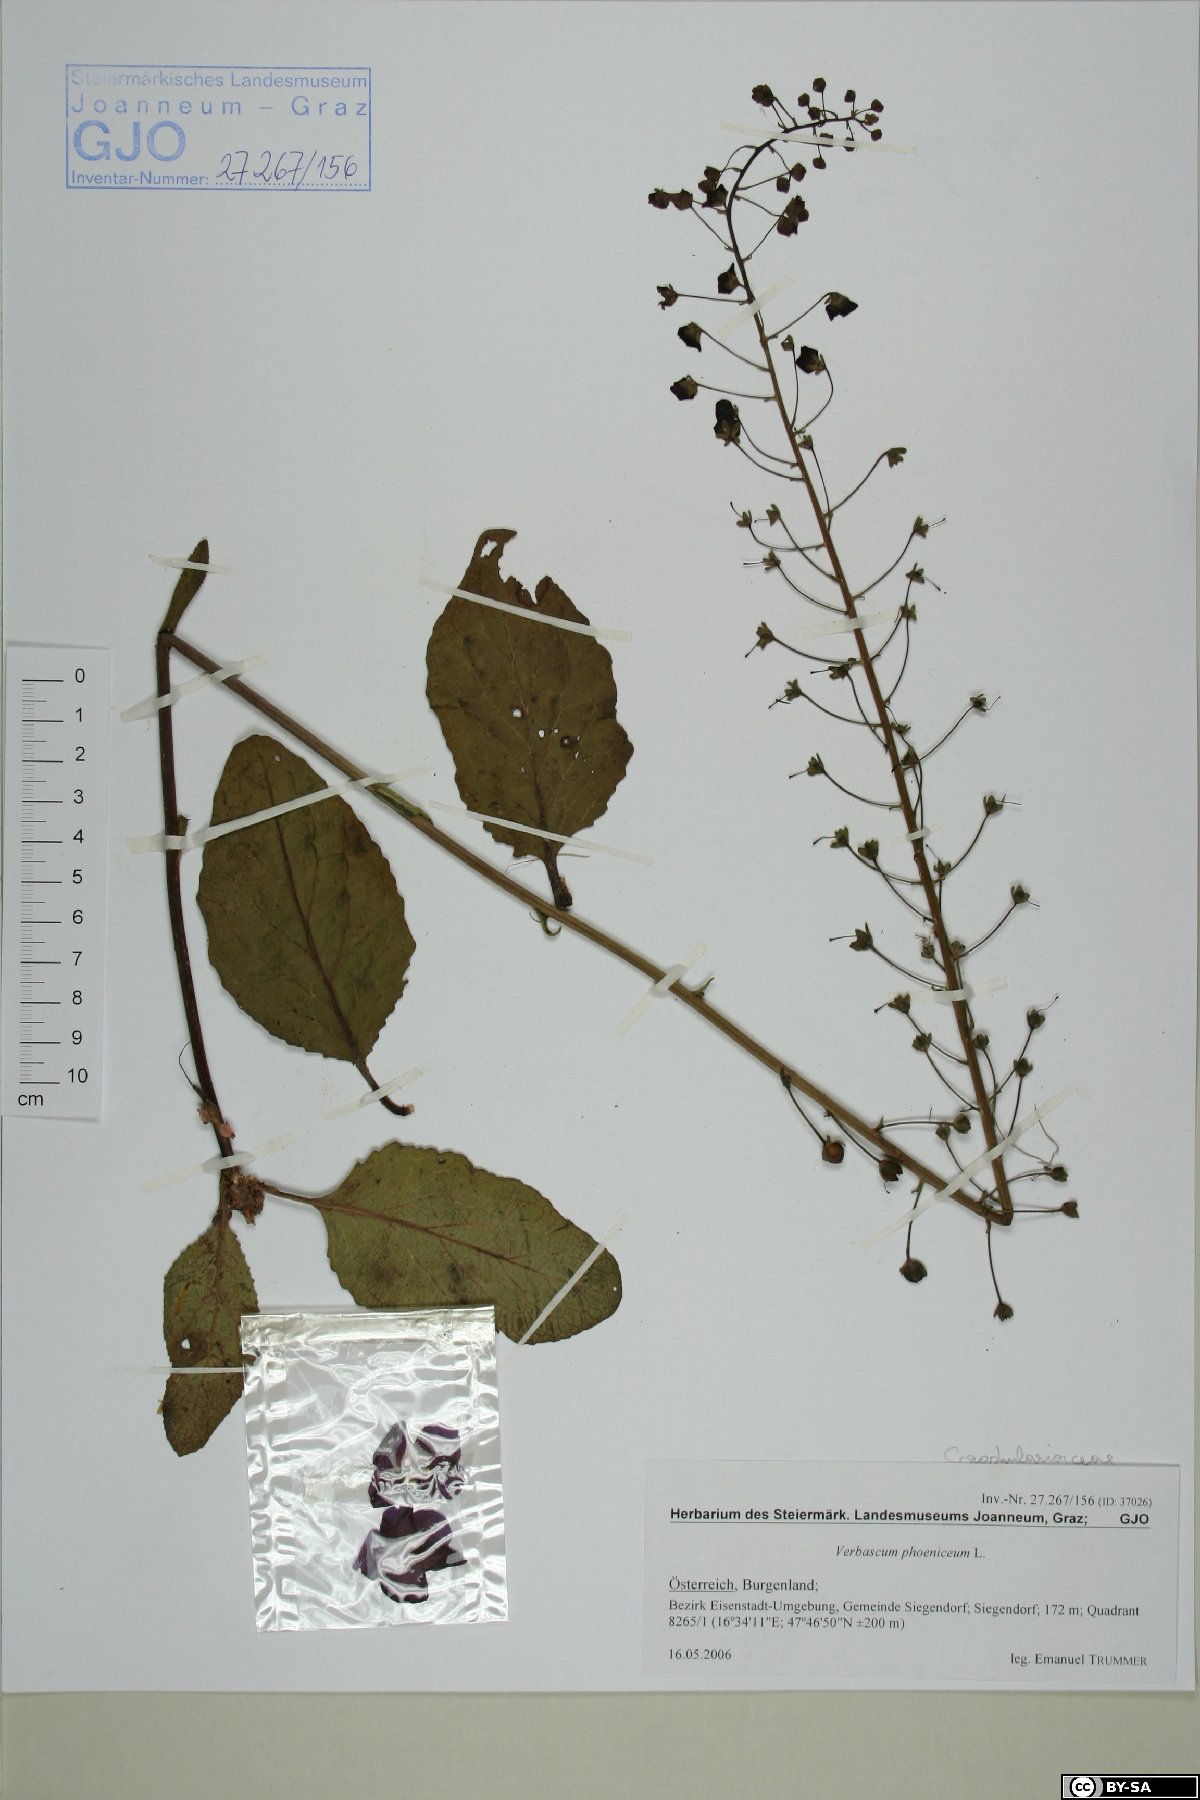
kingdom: Plantae
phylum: Tracheophyta
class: Magnoliopsida
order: Lamiales
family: Scrophulariaceae
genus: Verbascum
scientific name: Verbascum phoeniceum
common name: Purple mullein
